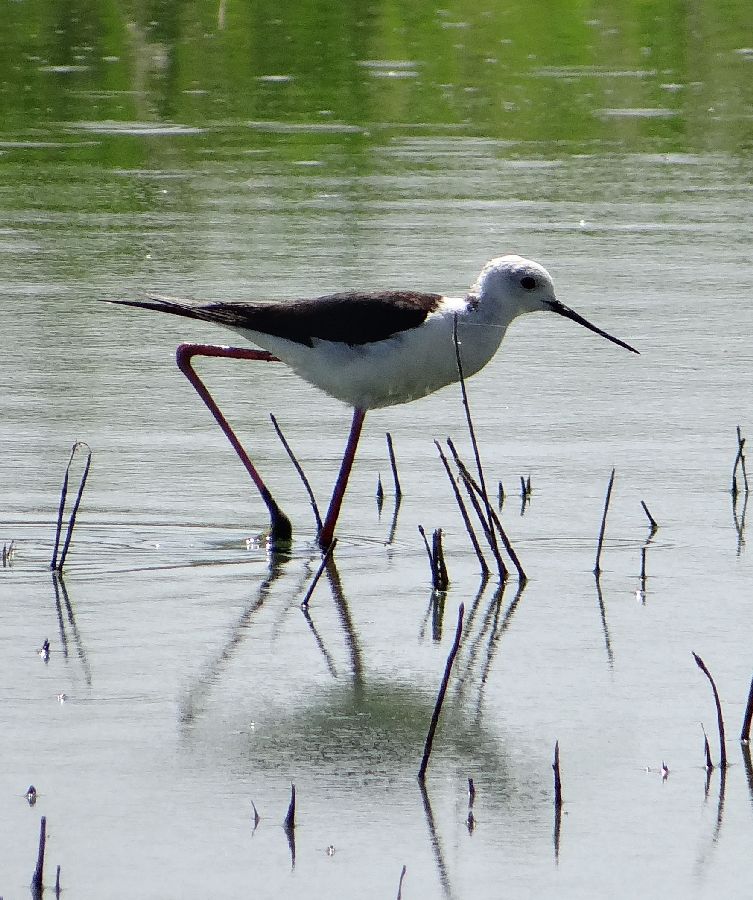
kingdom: Animalia
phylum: Chordata
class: Aves
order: Charadriiformes
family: Recurvirostridae
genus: Himantopus
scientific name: Himantopus himantopus
